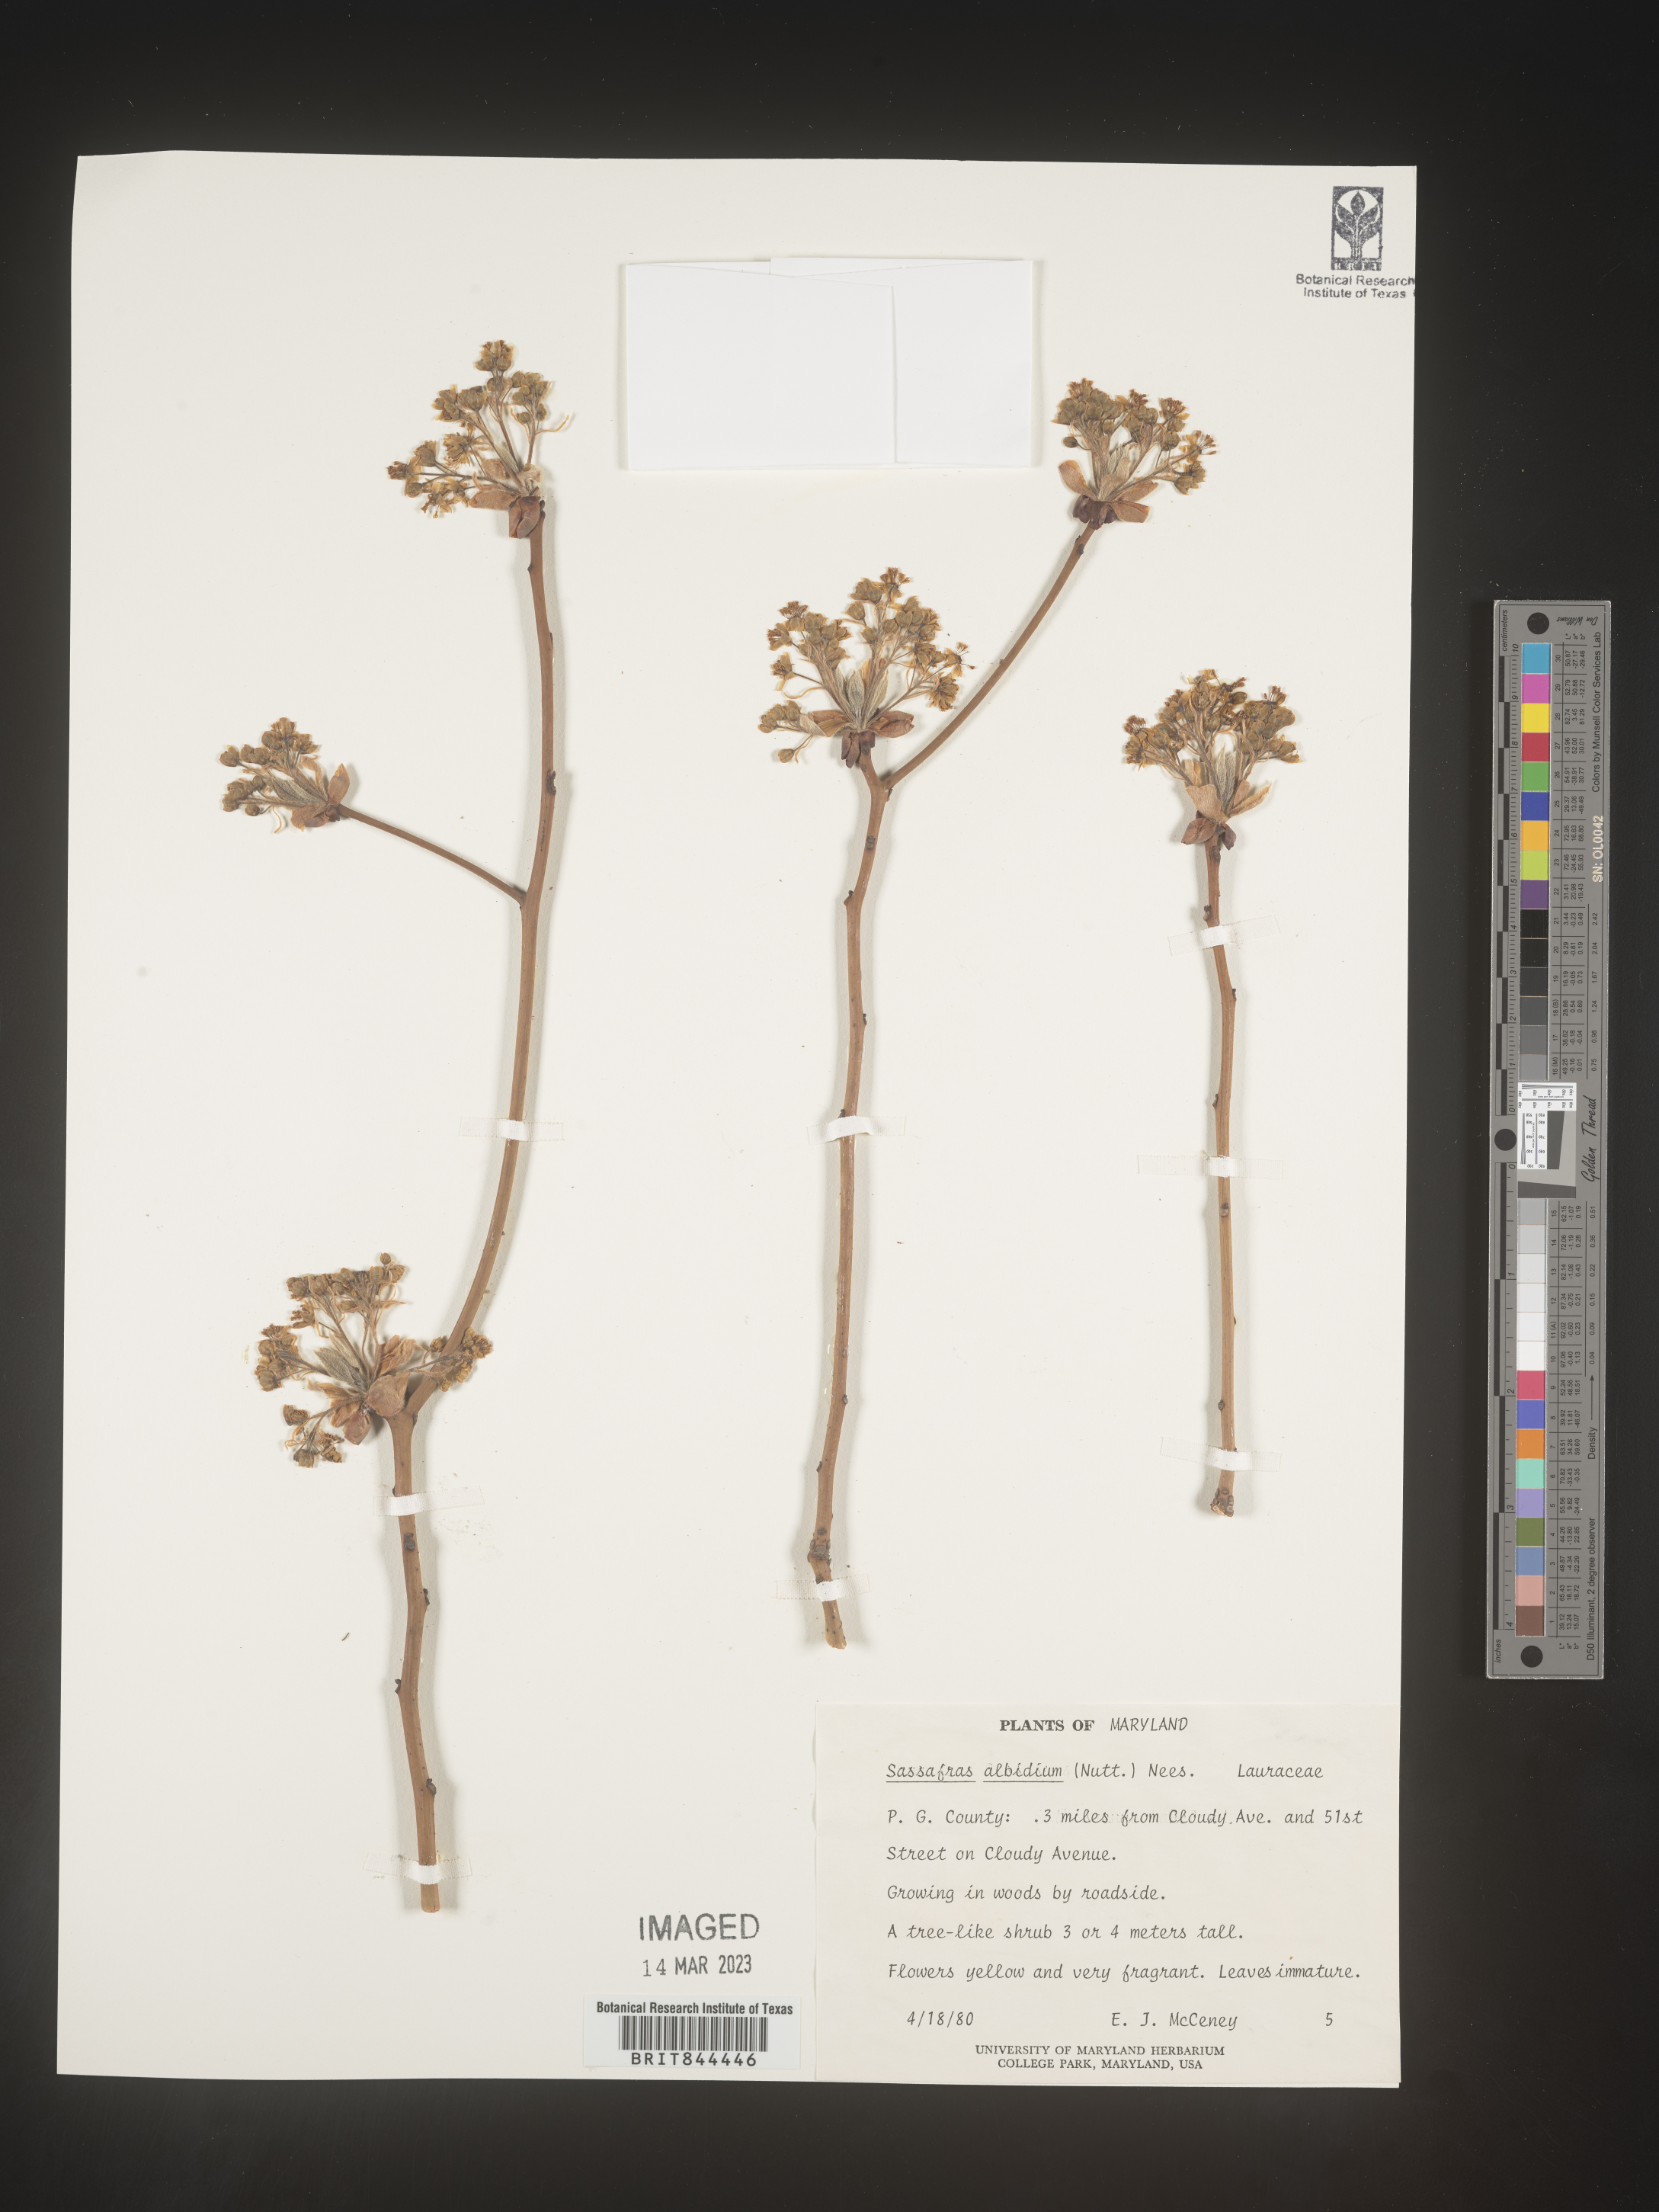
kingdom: Plantae
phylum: Tracheophyta
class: Magnoliopsida
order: Laurales
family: Lauraceae
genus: Sassafras
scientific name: Sassafras albidum
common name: Sassafras
